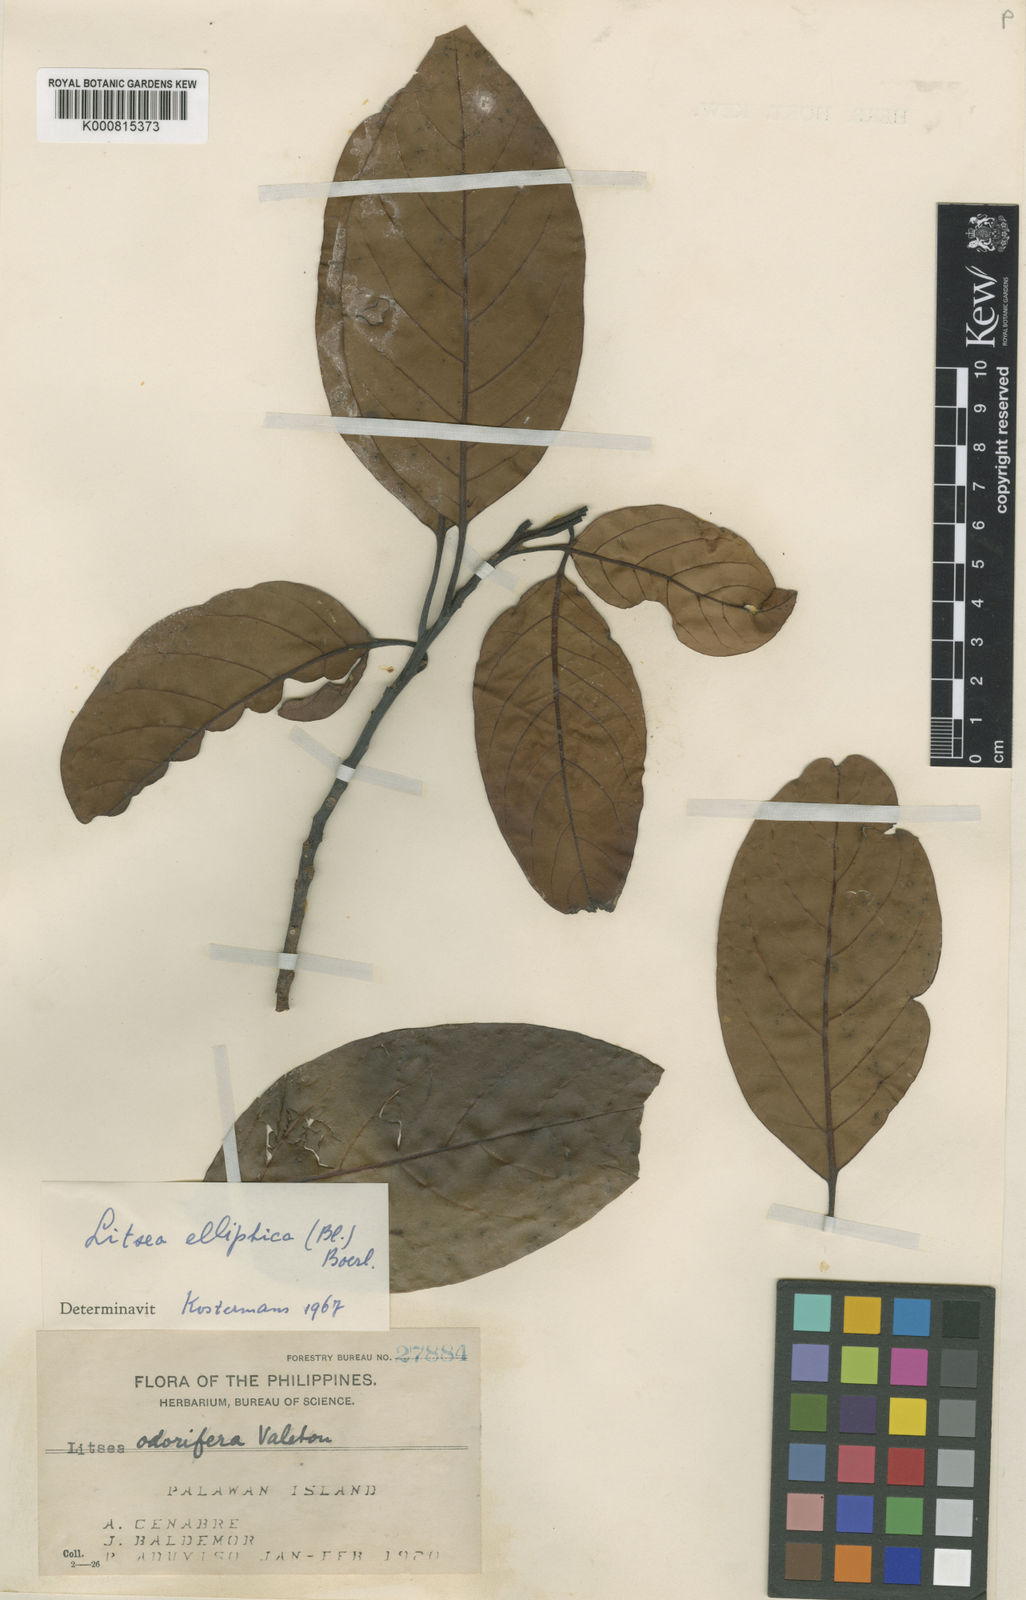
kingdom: Plantae
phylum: Tracheophyta
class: Magnoliopsida
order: Laurales
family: Lauraceae
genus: Litsea
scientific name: Litsea elliptica
